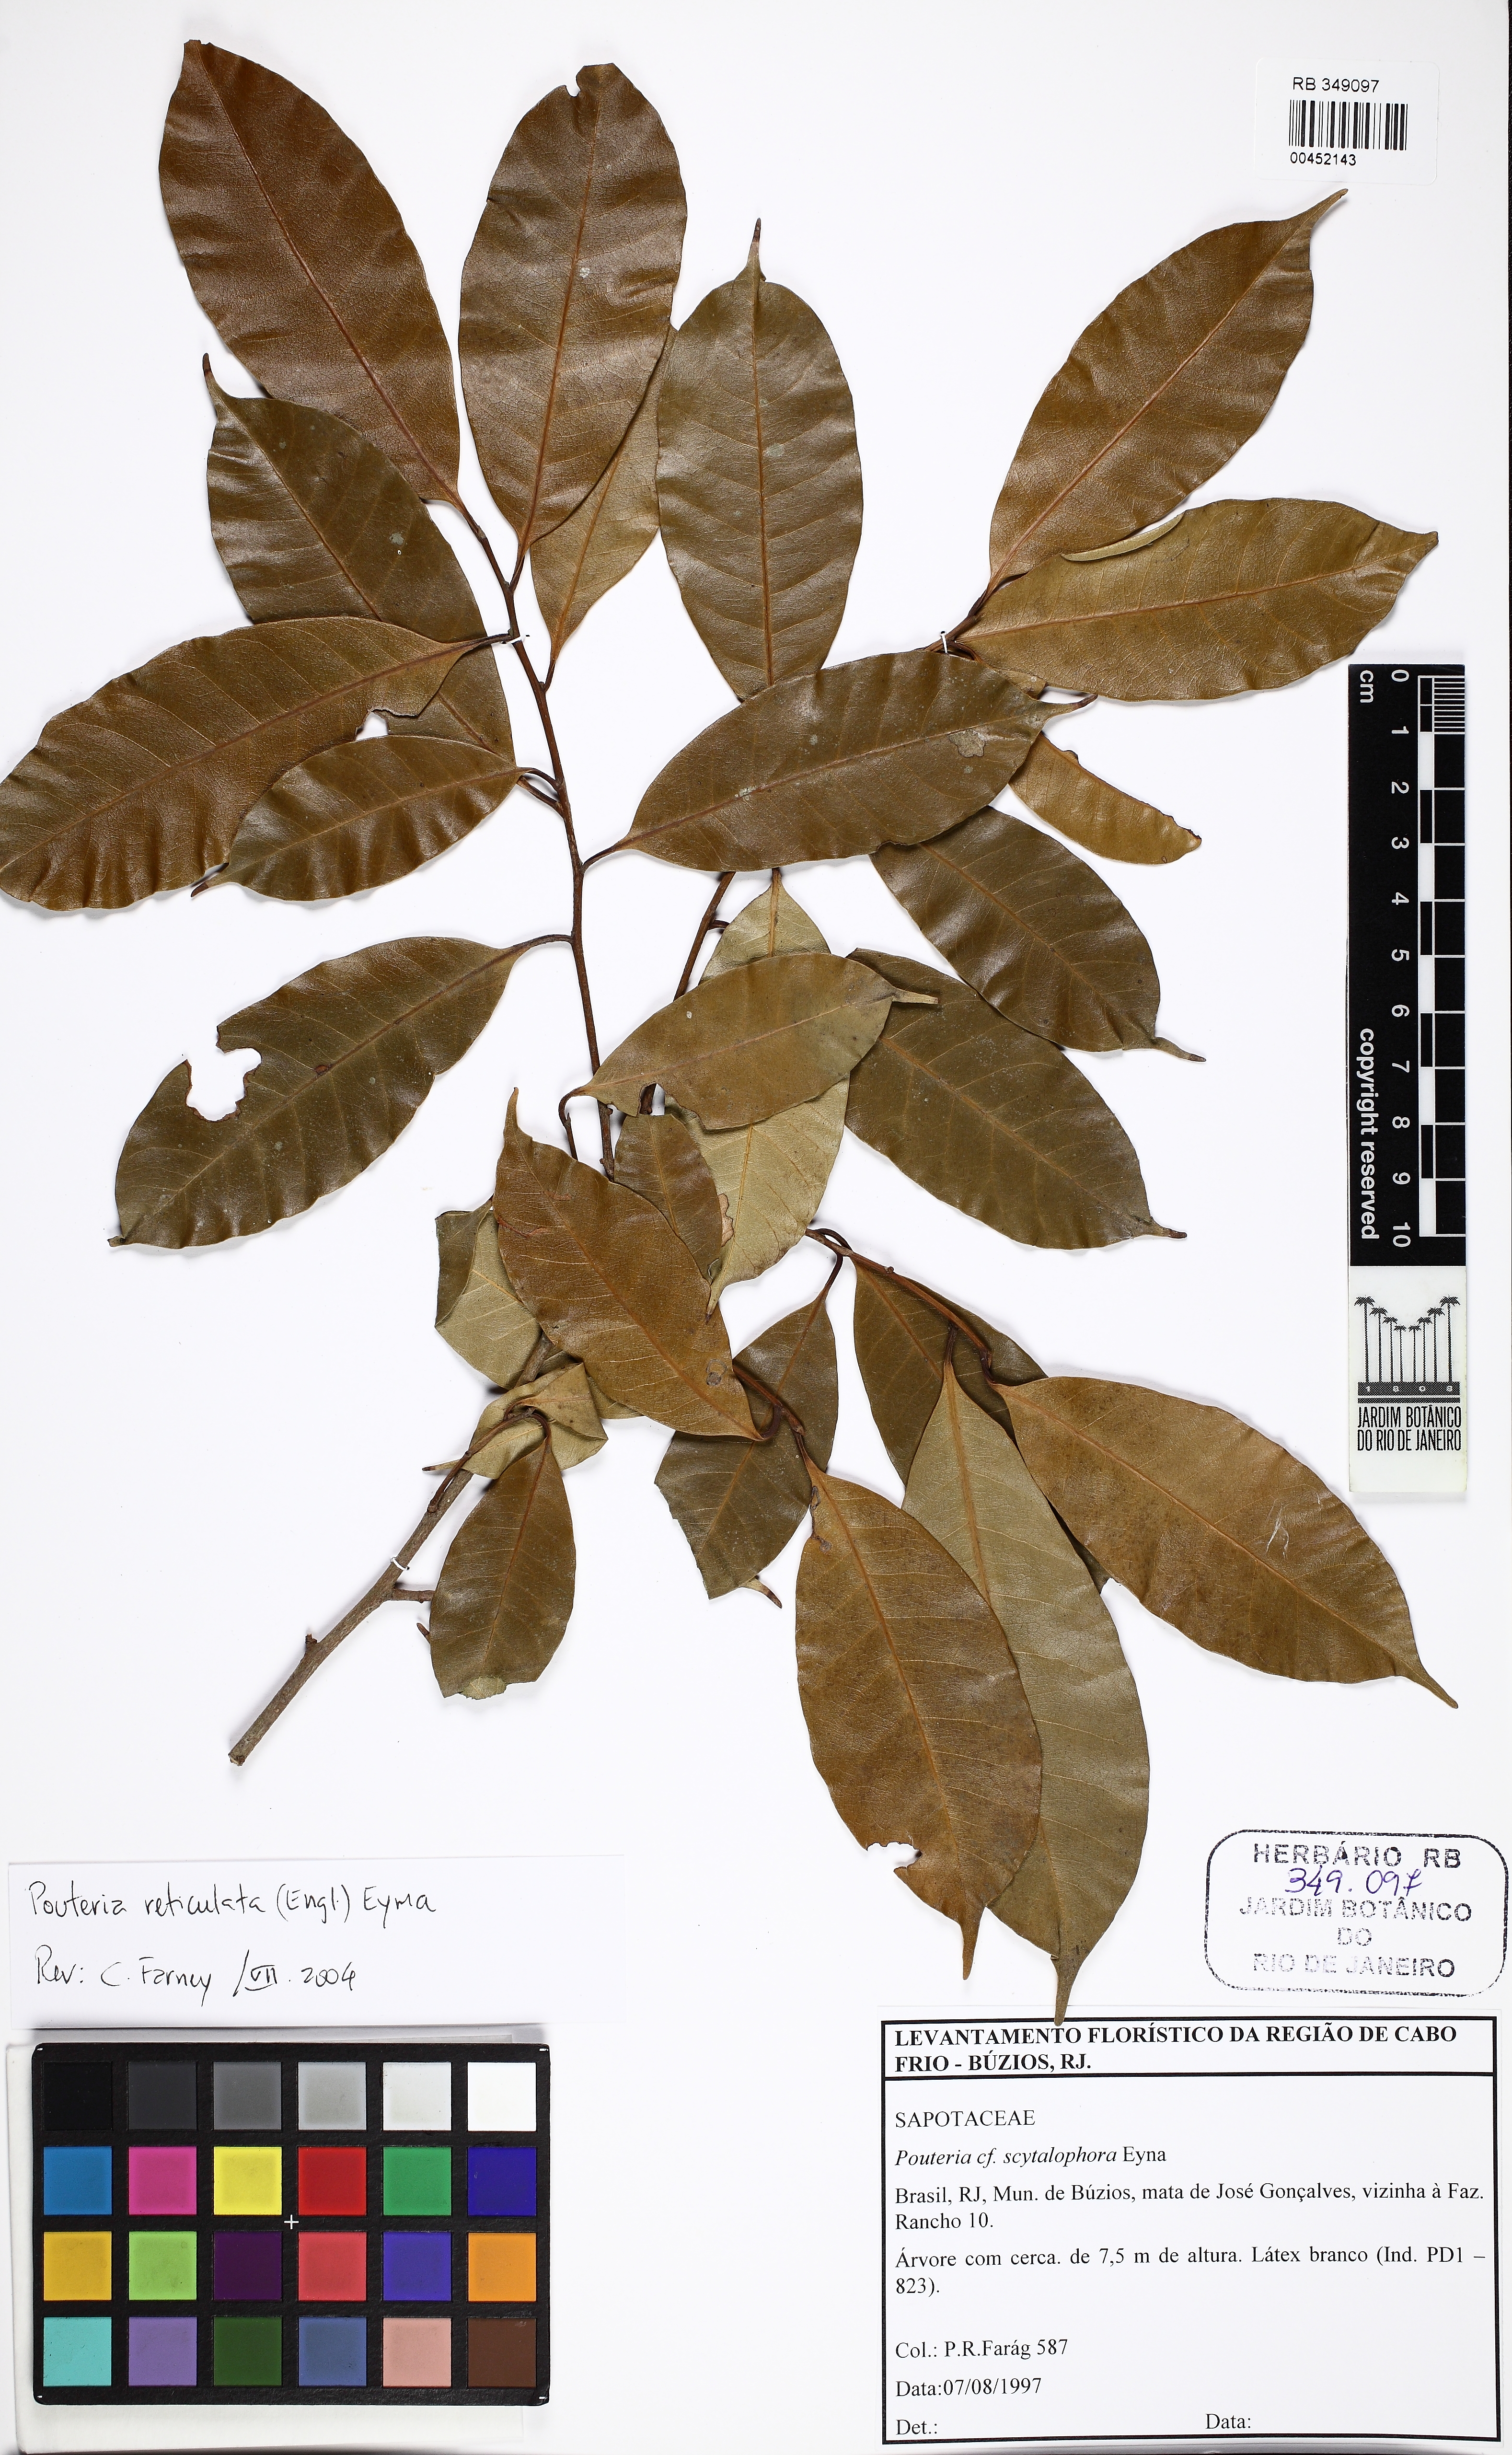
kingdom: Plantae
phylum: Tracheophyta
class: Magnoliopsida
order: Ericales
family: Sapotaceae
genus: Pouteria
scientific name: Pouteria reticulata
